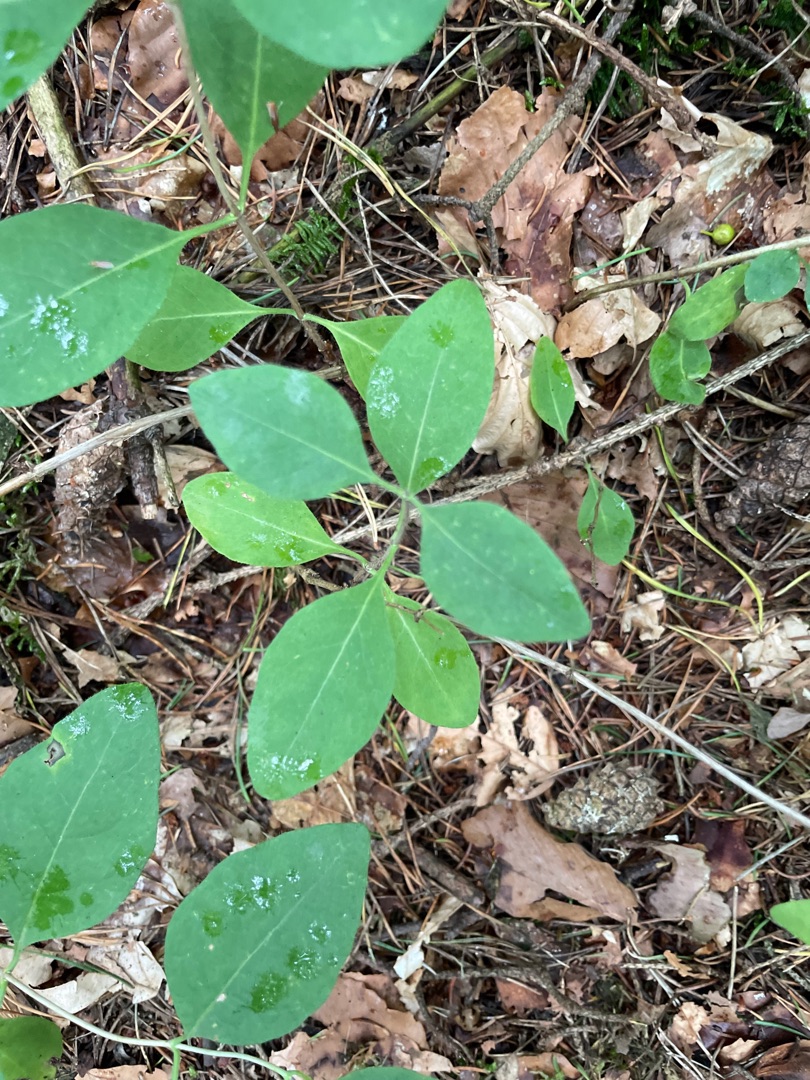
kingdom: Plantae
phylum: Tracheophyta
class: Magnoliopsida
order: Dipsacales
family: Caprifoliaceae
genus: Lonicera
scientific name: Lonicera periclymenum
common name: Almindelig gedeblad
